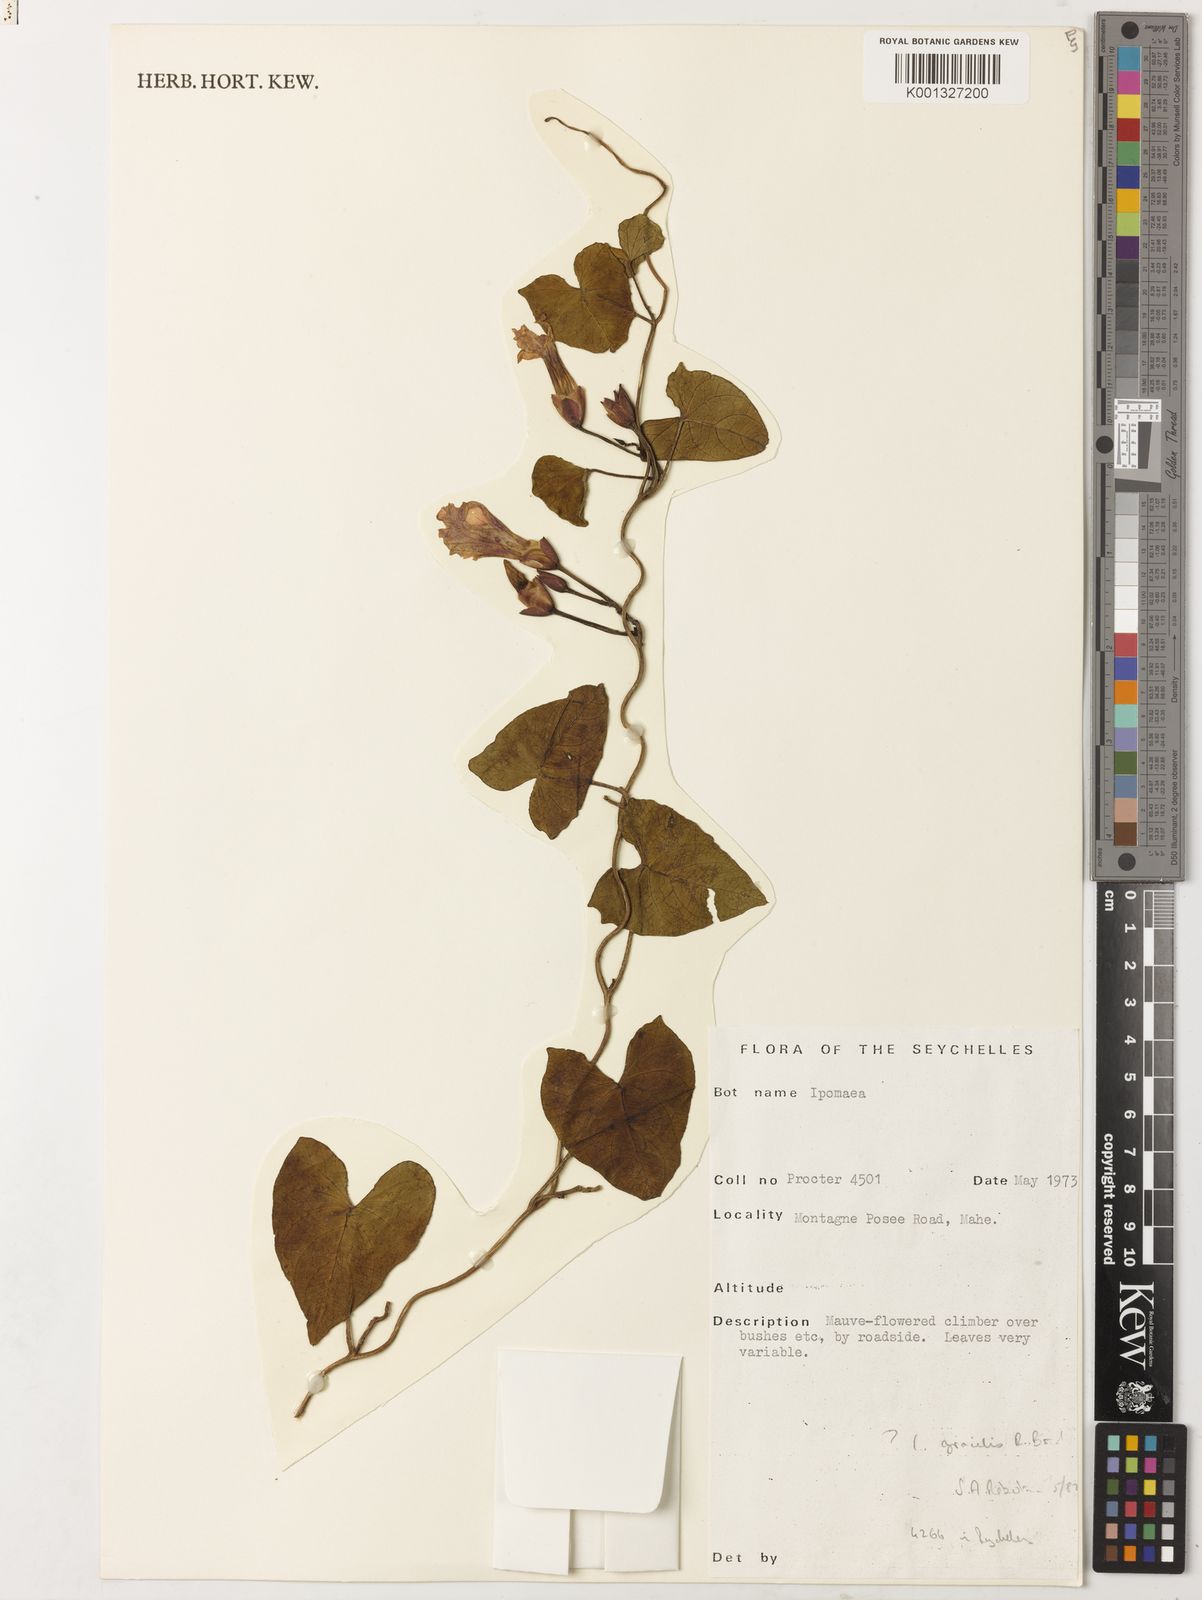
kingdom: Plantae
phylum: Tracheophyta
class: Magnoliopsida
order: Solanales
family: Convolvulaceae
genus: Ipomoea
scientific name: Ipomoea gracilis
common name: Almor-ira
